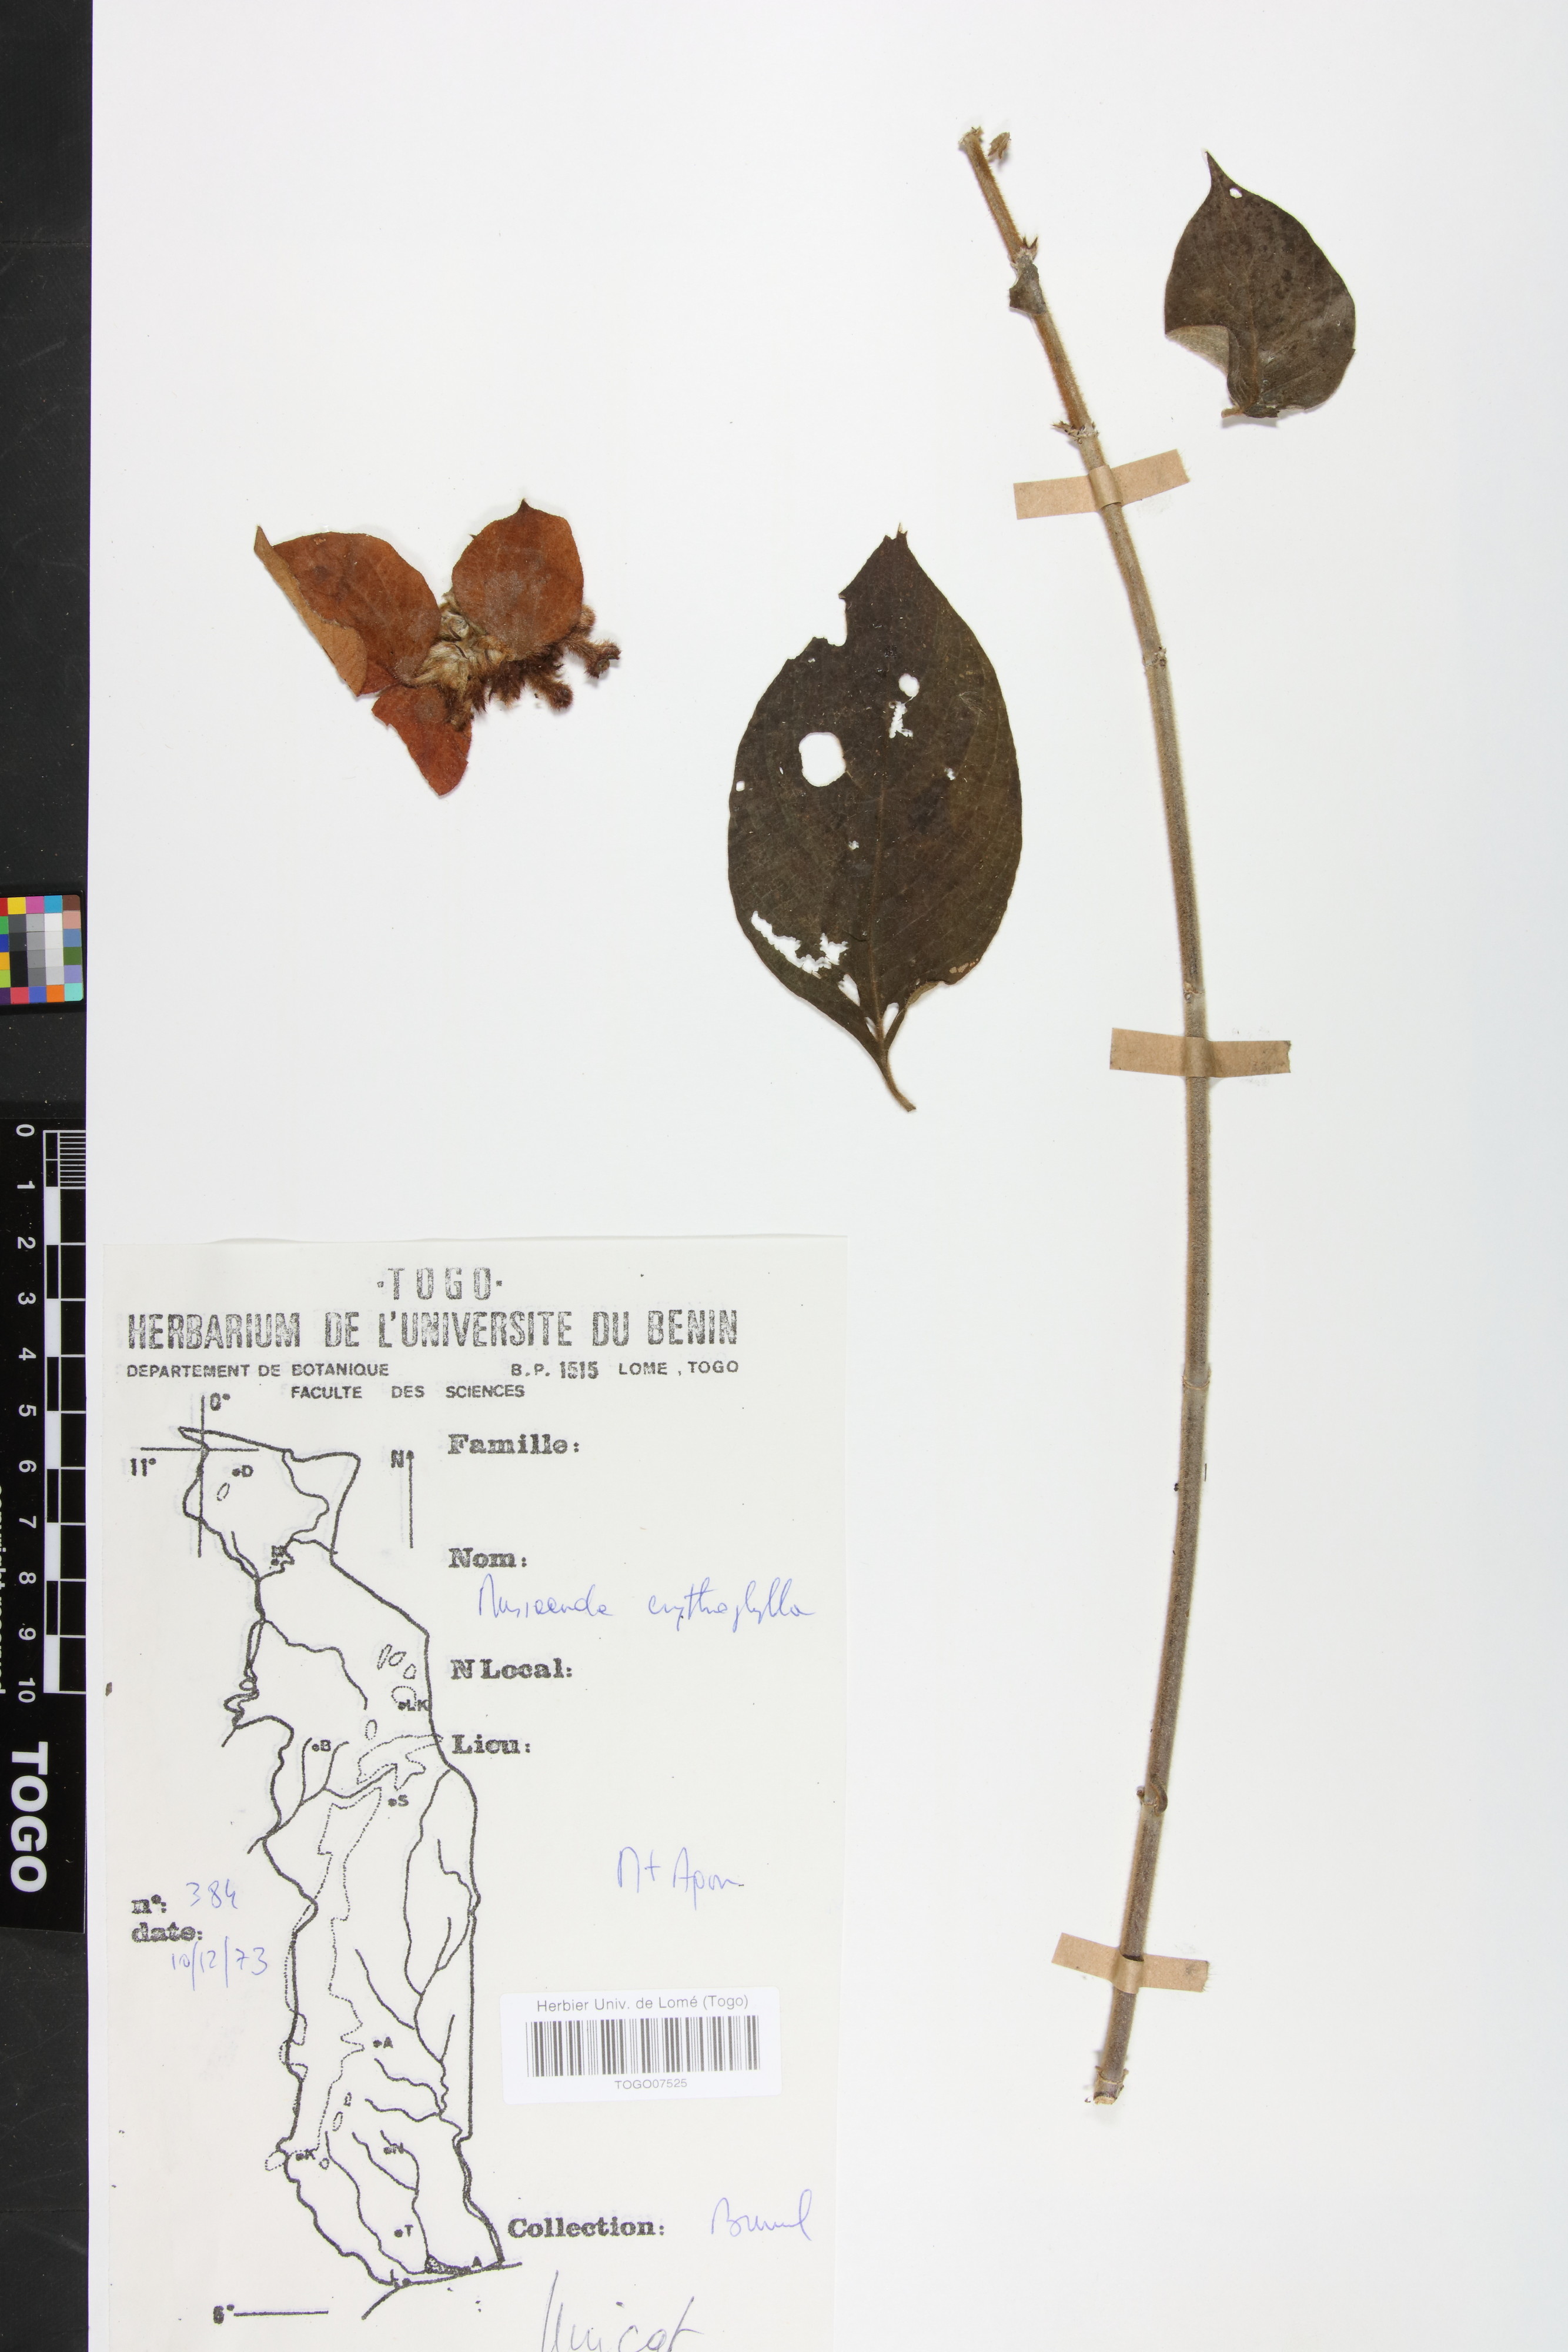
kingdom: Plantae
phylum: Tracheophyta
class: Magnoliopsida
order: Gentianales
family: Rubiaceae
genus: Mussaenda
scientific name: Mussaenda erythrophylla
